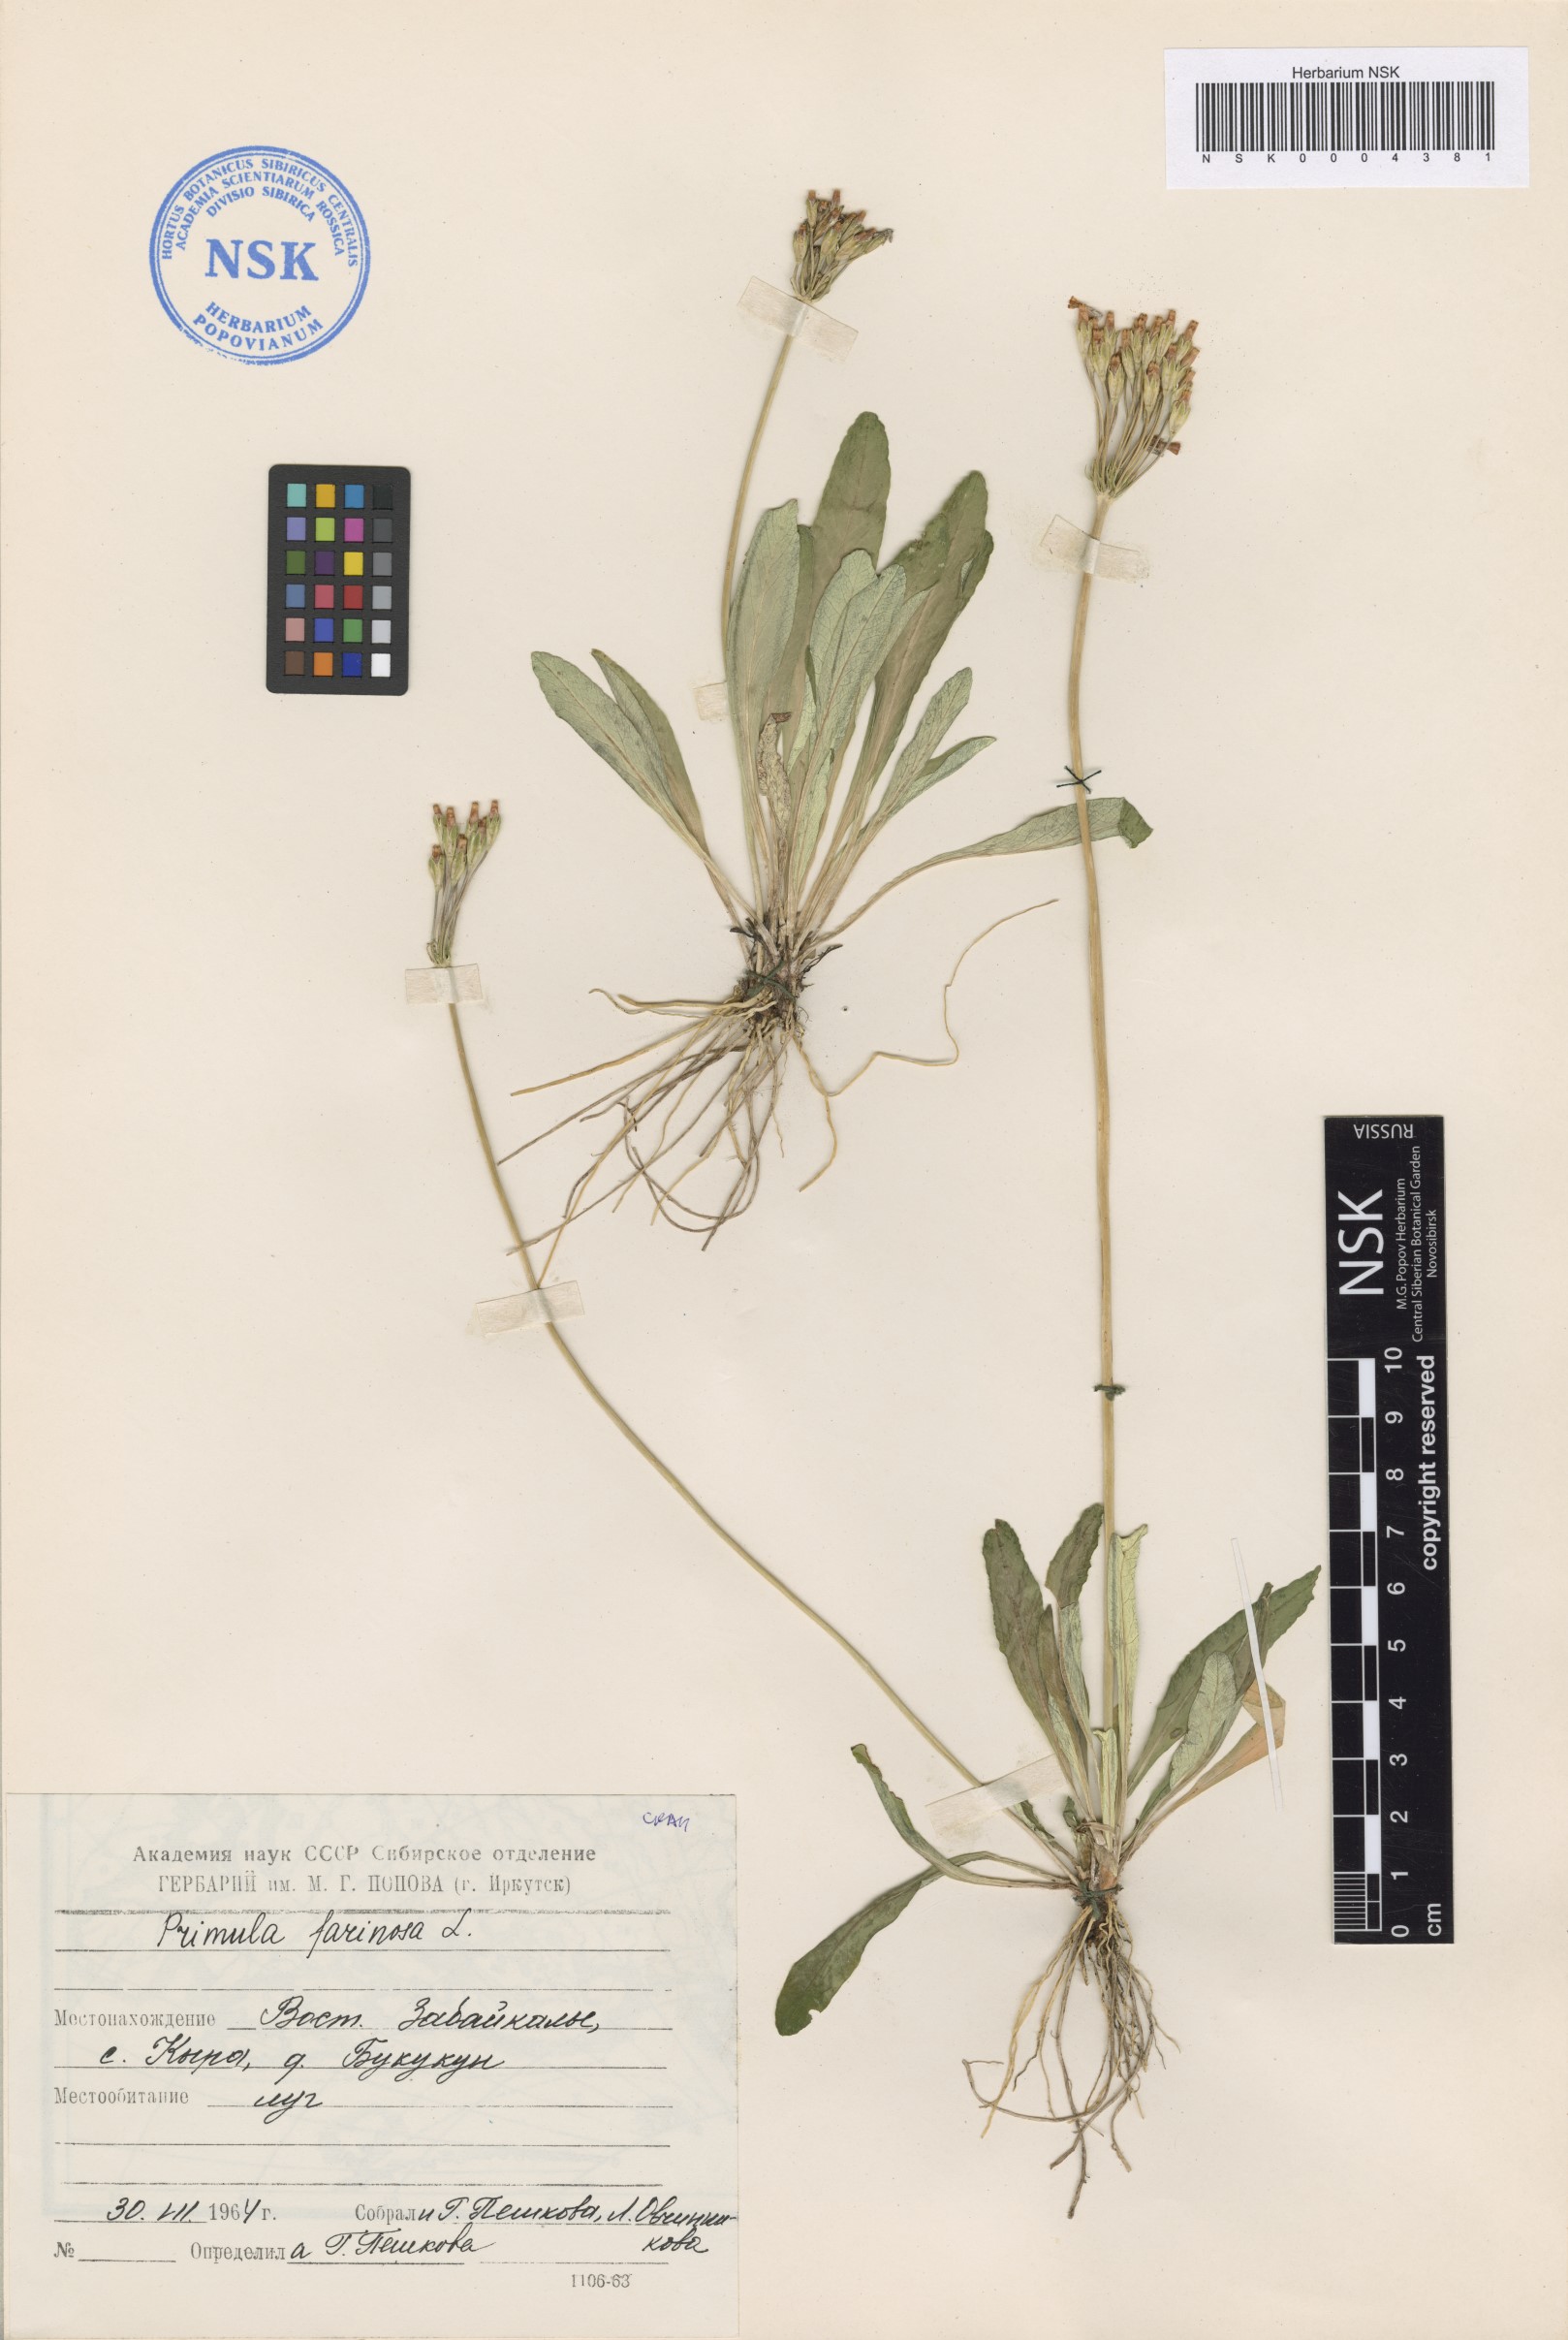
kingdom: Plantae
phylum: Tracheophyta
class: Magnoliopsida
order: Ericales
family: Primulaceae
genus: Primula
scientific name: Primula farinosa
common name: Bird's-eye primrose
